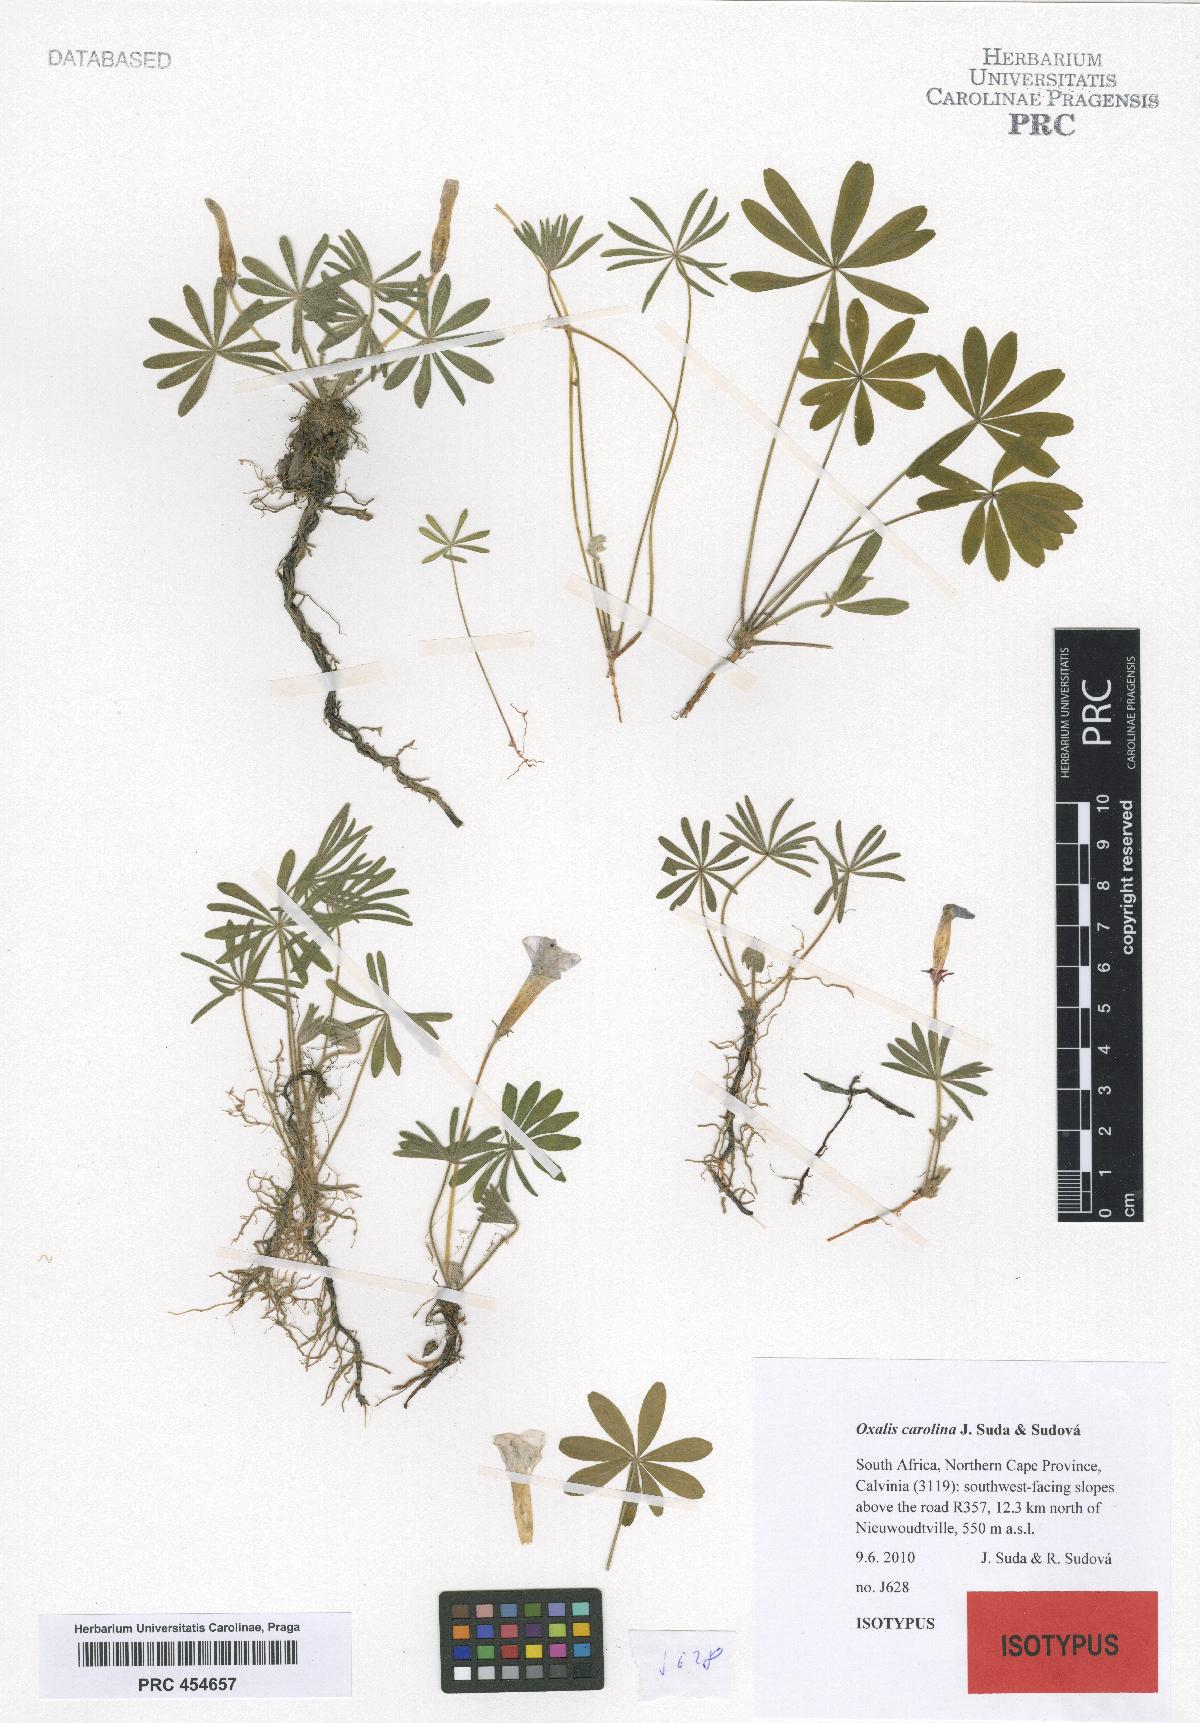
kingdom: Plantae
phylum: Tracheophyta
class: Magnoliopsida
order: Oxalidales
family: Oxalidaceae
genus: Oxalis
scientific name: Oxalis carolina
